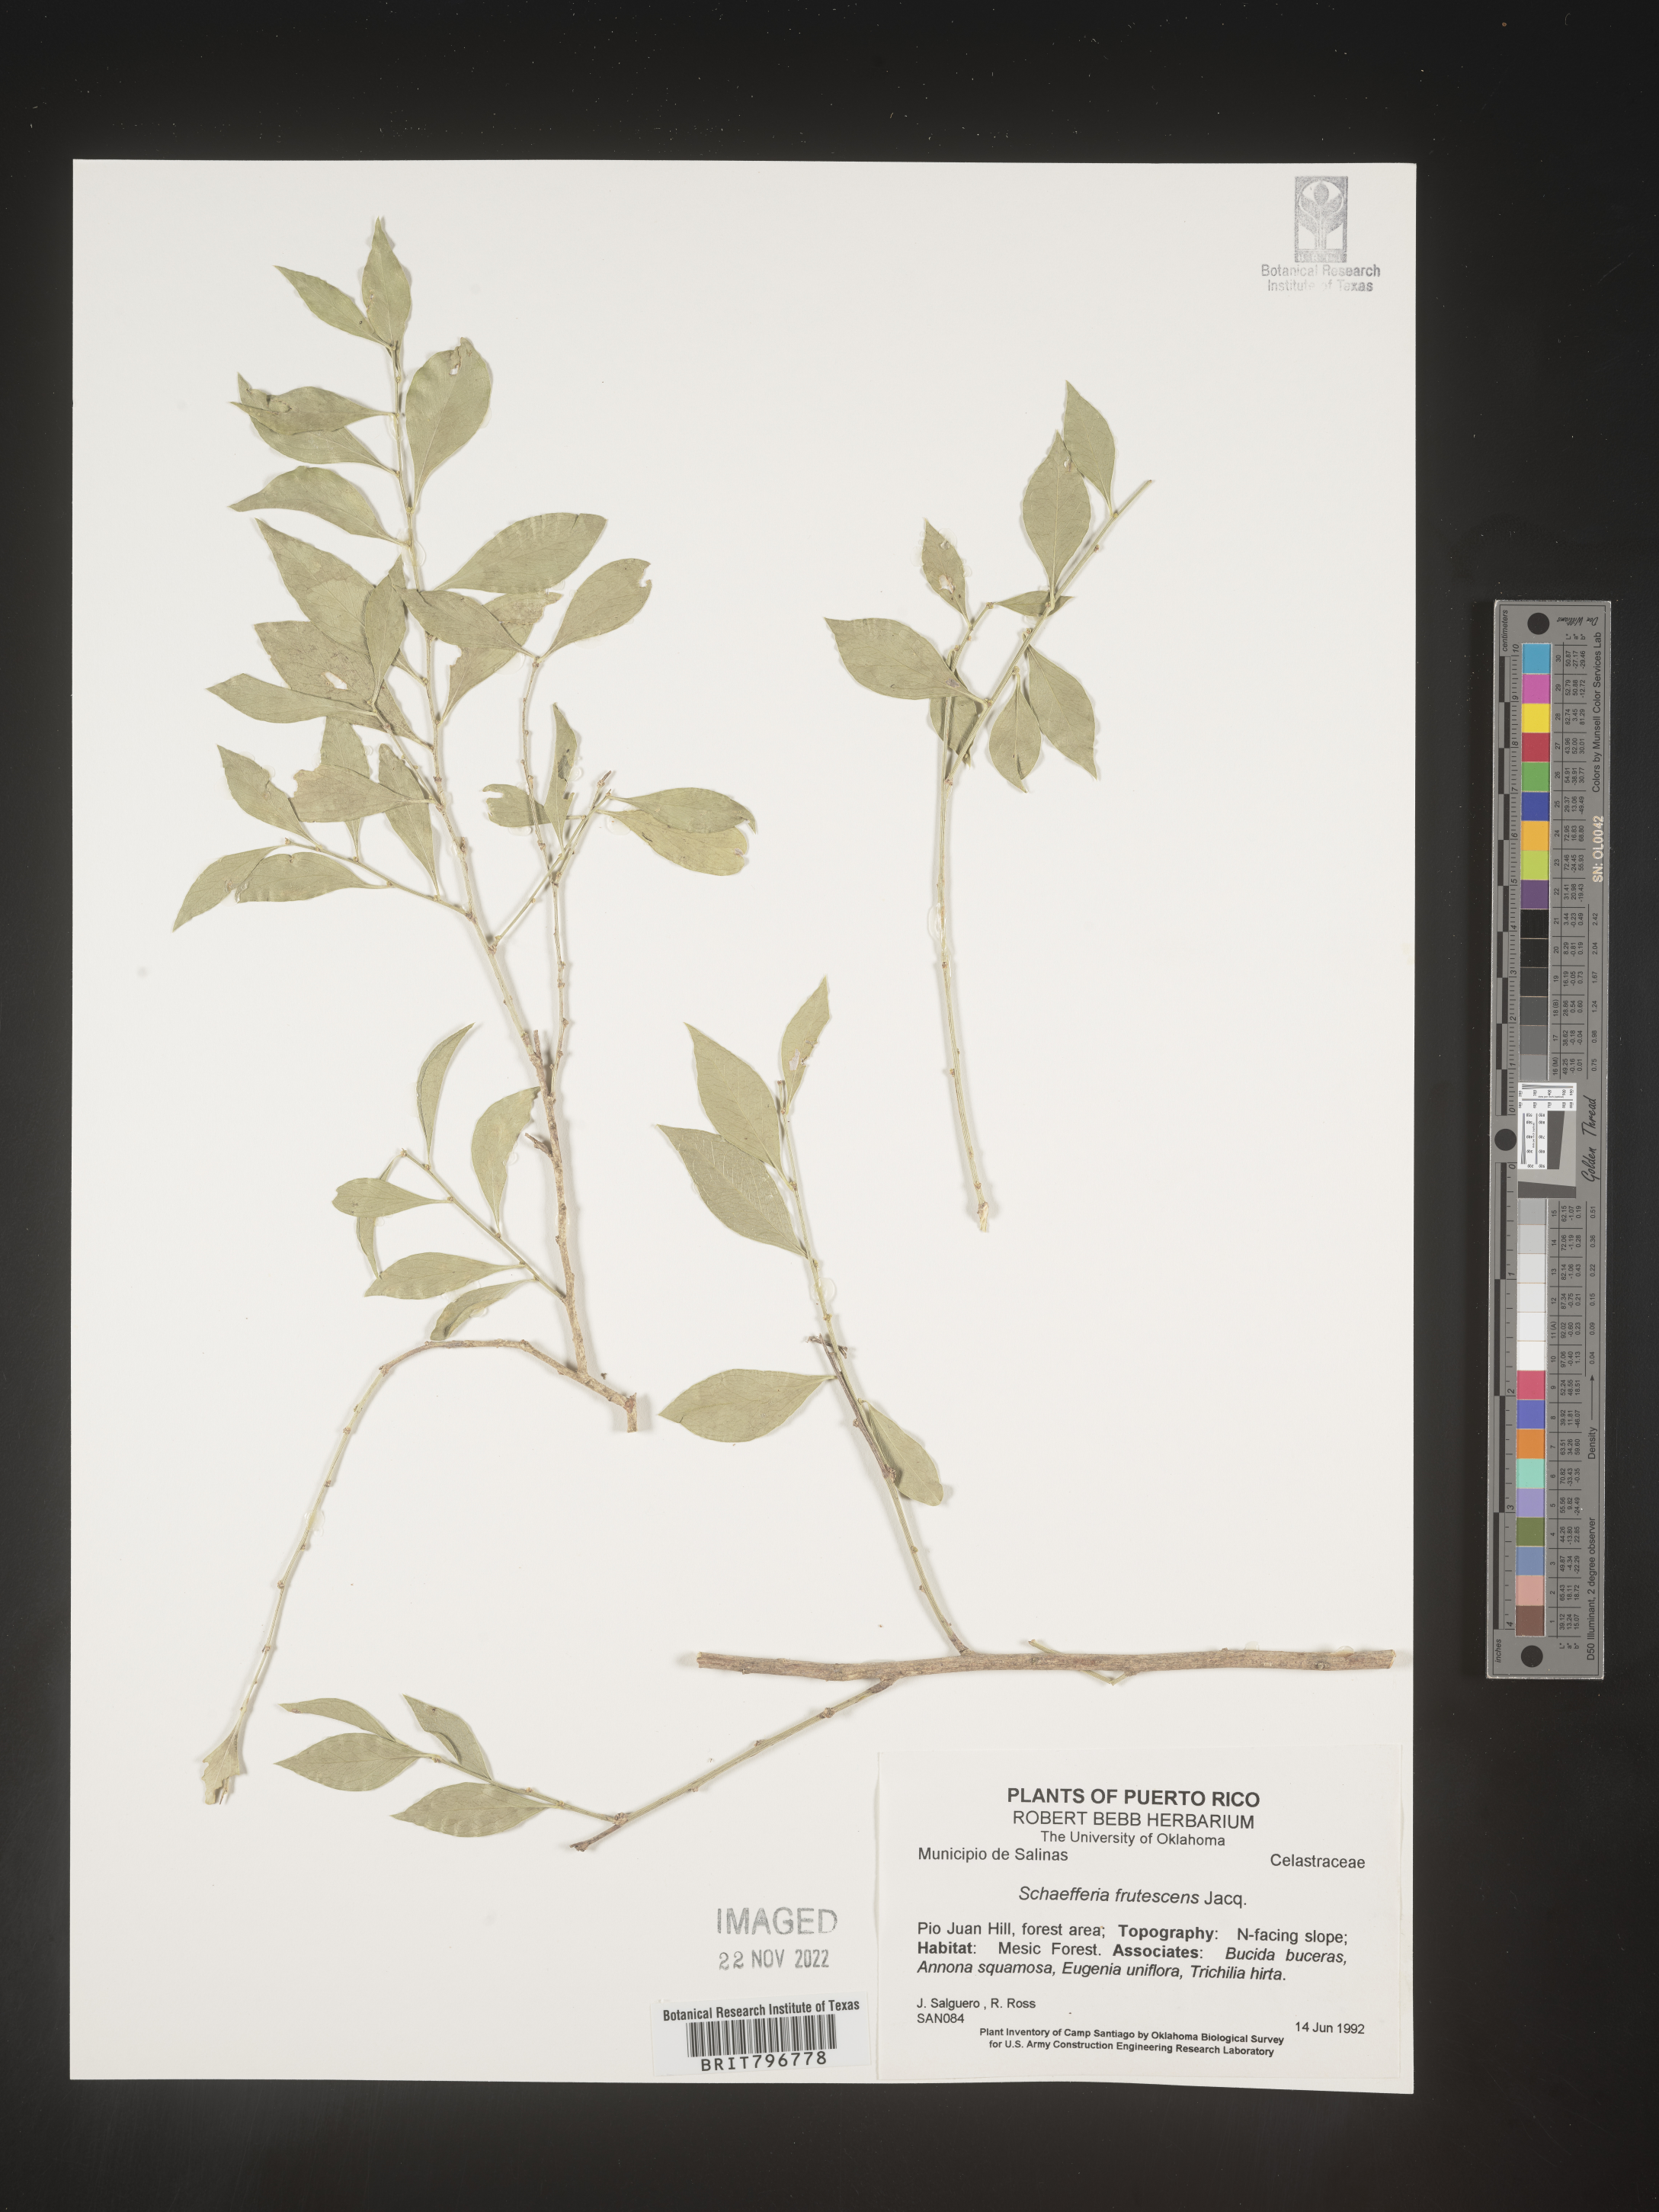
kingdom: Plantae
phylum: Tracheophyta
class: Magnoliopsida
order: Celastrales
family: Celastraceae
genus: Schaefferia
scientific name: Schaefferia
